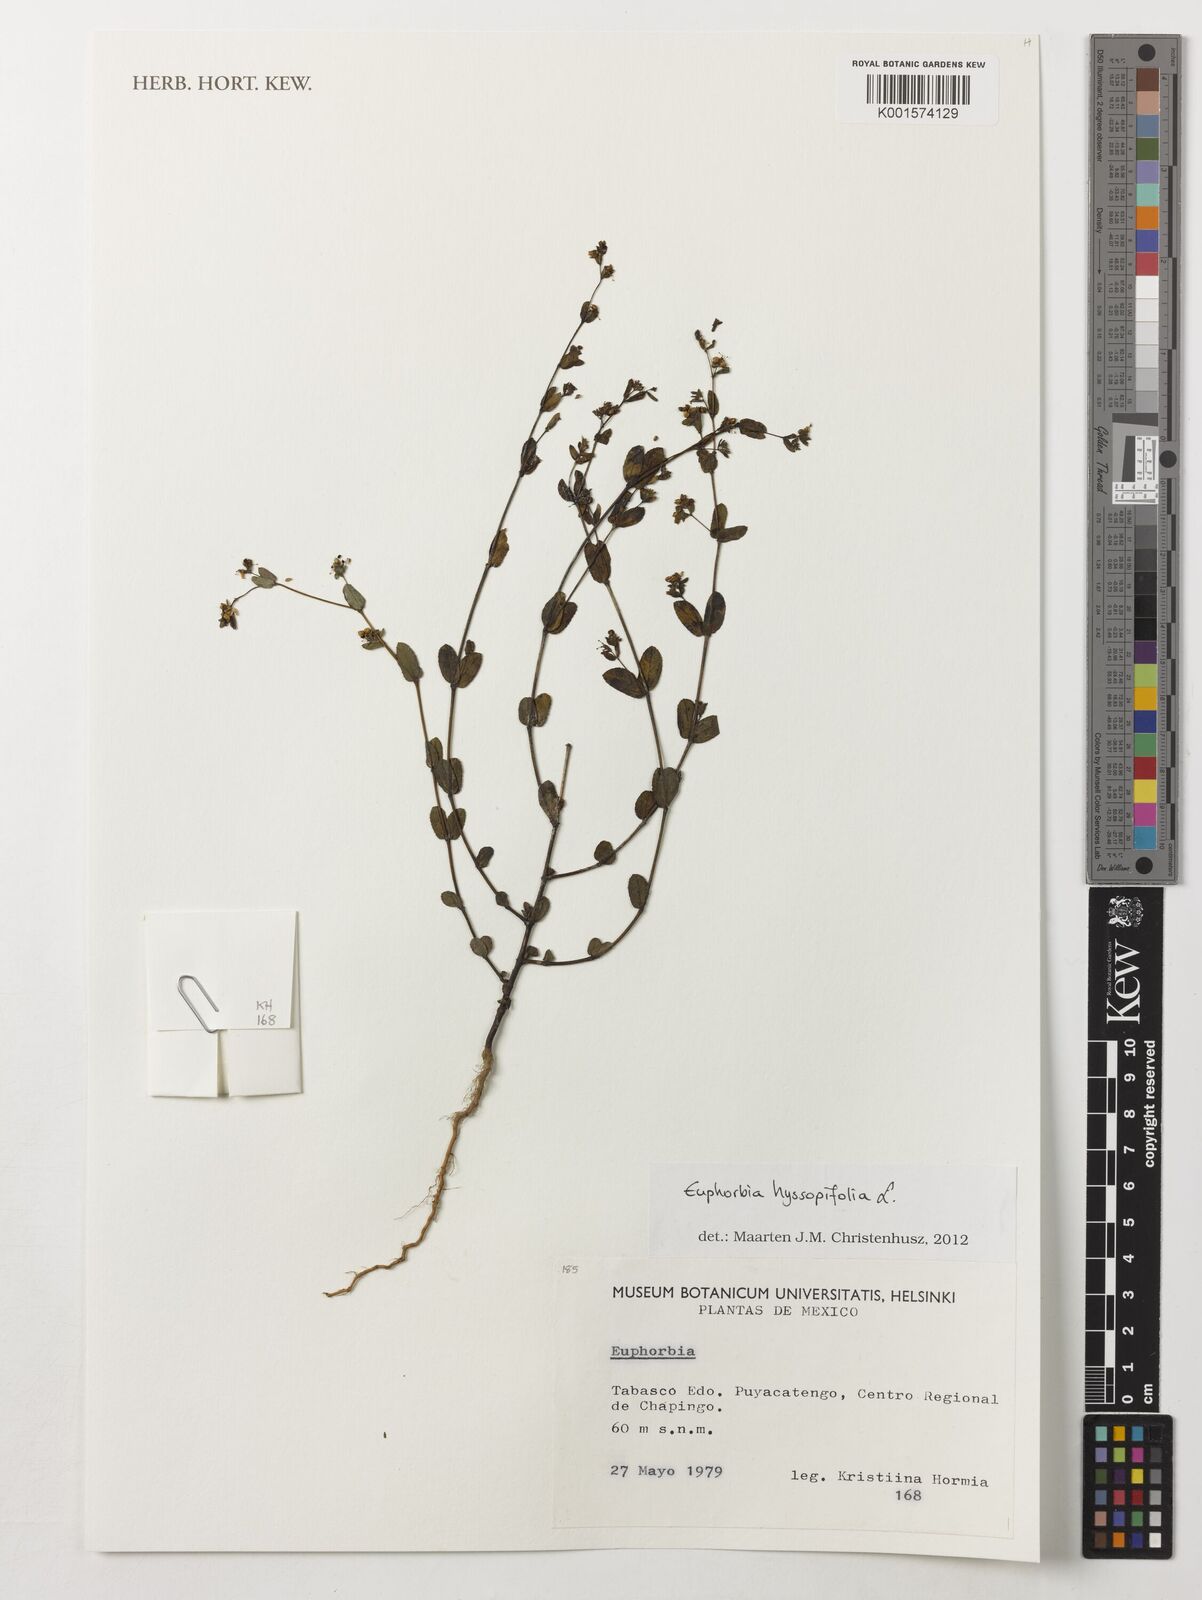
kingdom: Plantae
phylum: Tracheophyta
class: Magnoliopsida
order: Malpighiales
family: Euphorbiaceae
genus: Euphorbia
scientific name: Euphorbia hyssopifolia
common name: Hyssopleaf sandmat
